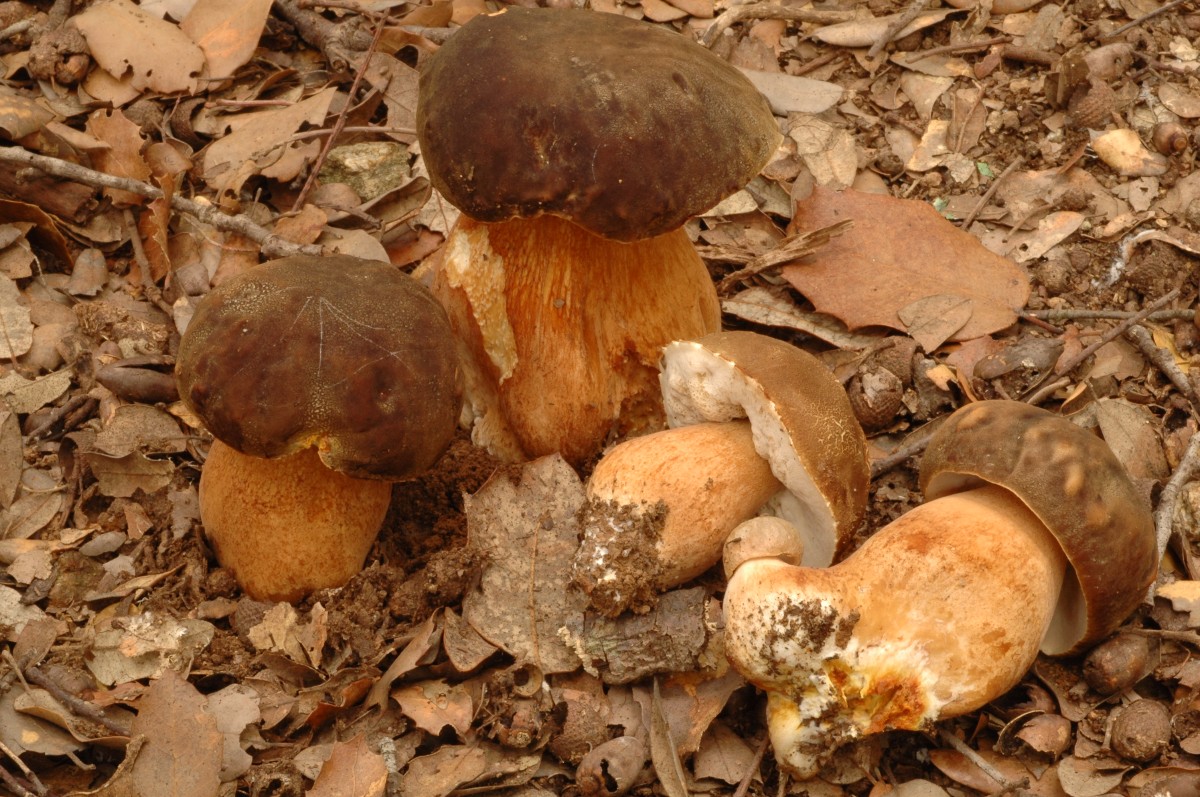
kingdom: Fungi
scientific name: Fungi
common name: bronze-rørhat
